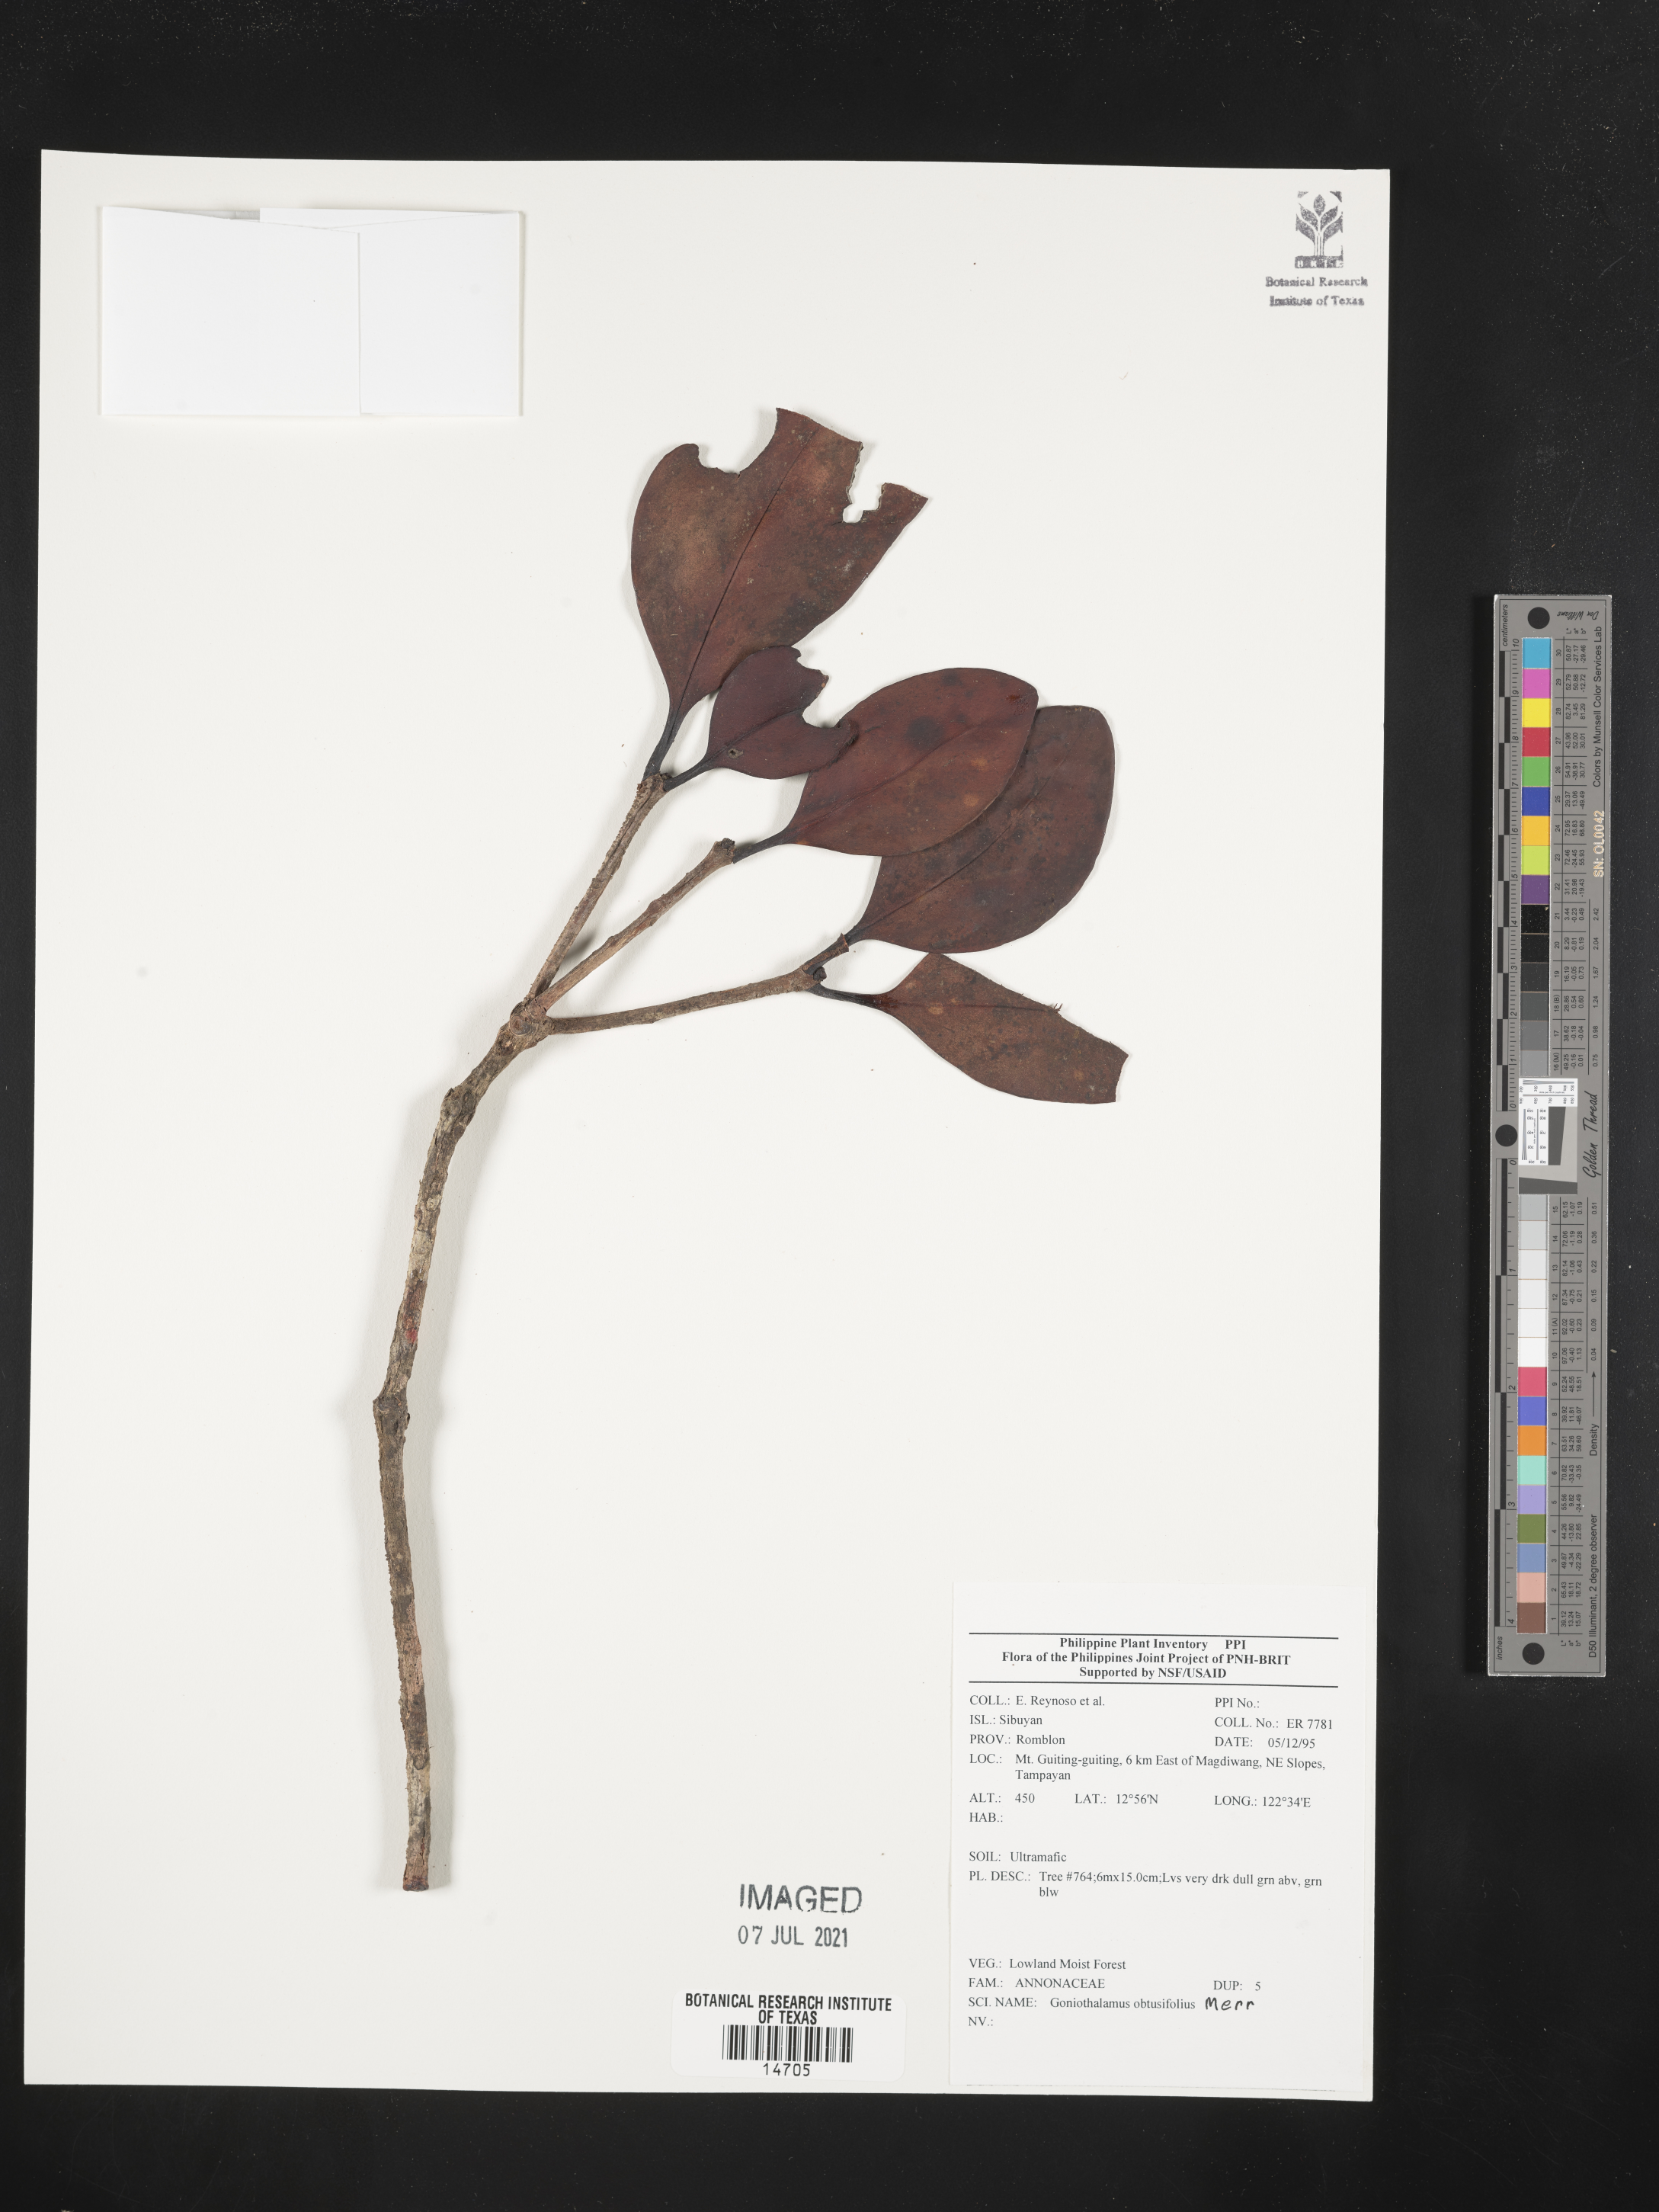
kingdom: Plantae
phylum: Tracheophyta
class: Magnoliopsida
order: Magnoliales
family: Annonaceae
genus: Goniothalamus
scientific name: Goniothalamus obtusifolius
